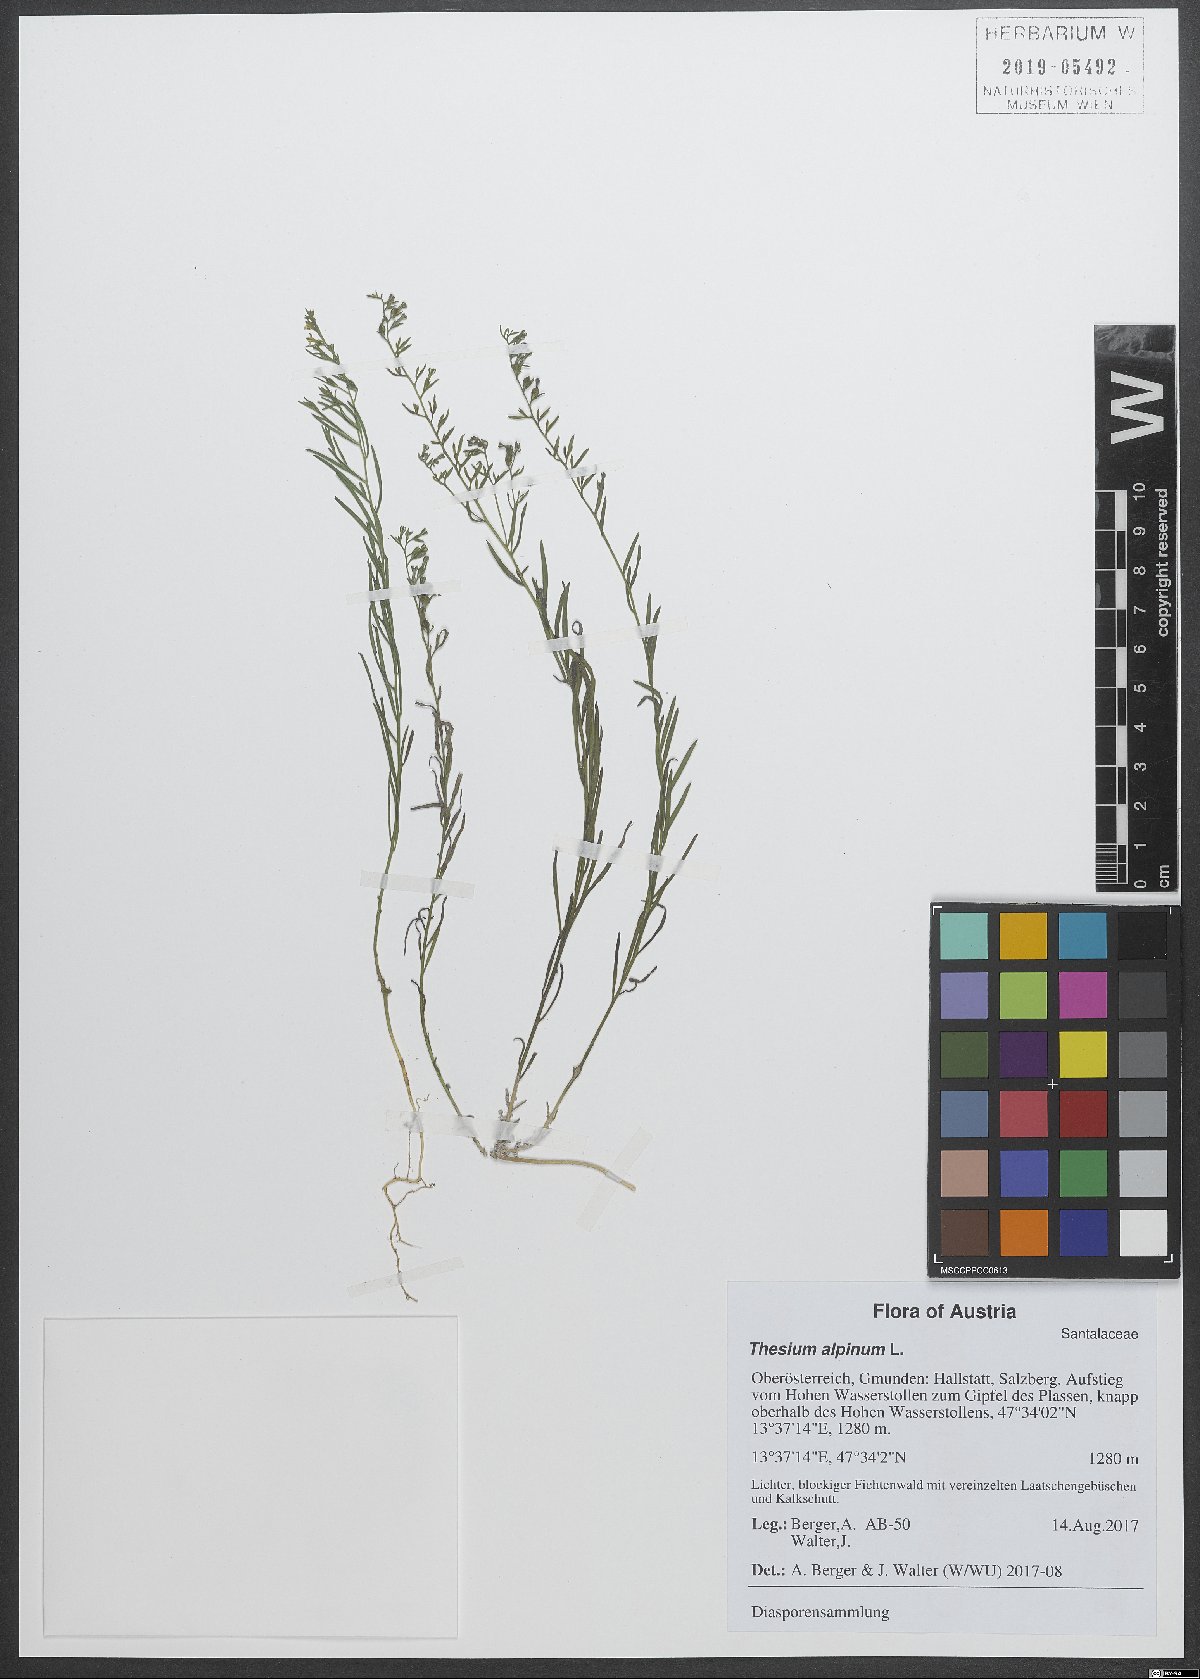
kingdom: Plantae
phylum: Tracheophyta
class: Magnoliopsida
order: Santalales
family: Thesiaceae
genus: Thesium
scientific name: Thesium alpinum
